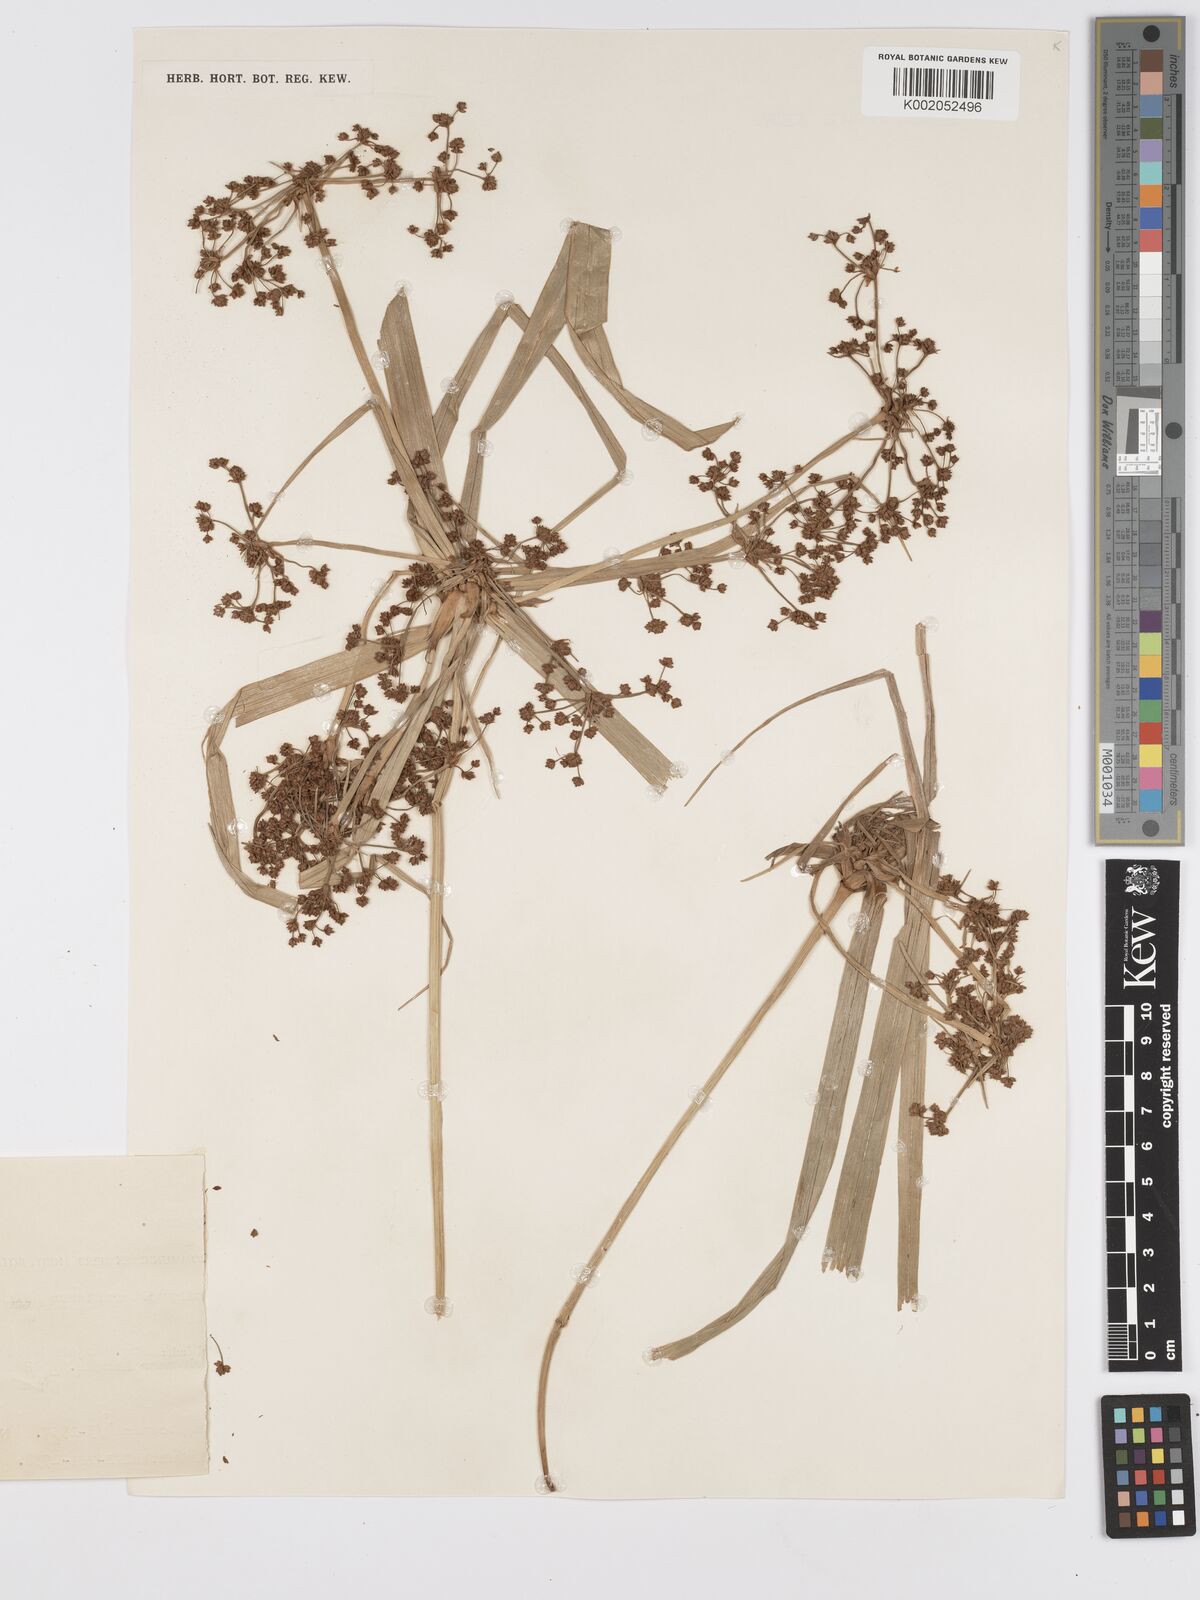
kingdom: Plantae
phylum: Tracheophyta
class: Liliopsida
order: Poales
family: Cyperaceae
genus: Scirpus
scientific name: Scirpus lineatus
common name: Drooping bulrush
